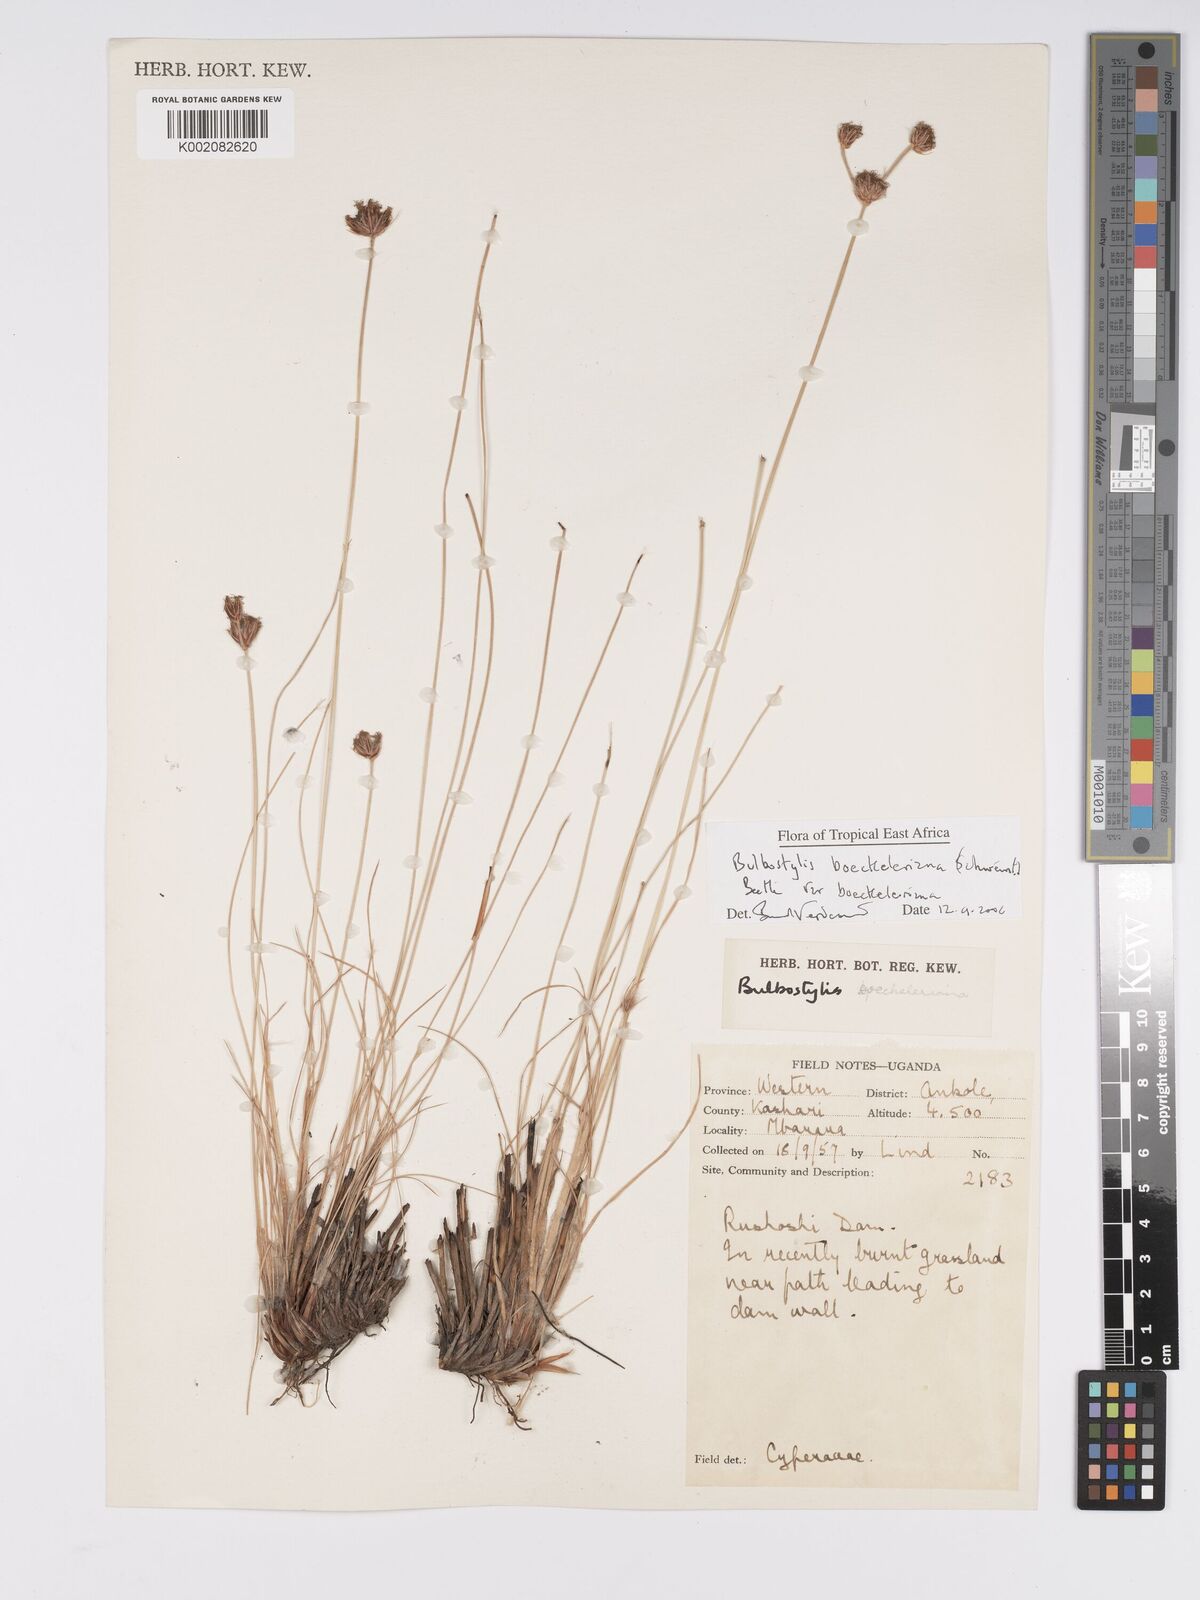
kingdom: Plantae
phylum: Tracheophyta
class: Liliopsida
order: Poales
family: Cyperaceae
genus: Bulbostylis
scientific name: Bulbostylis boeckeleriana
